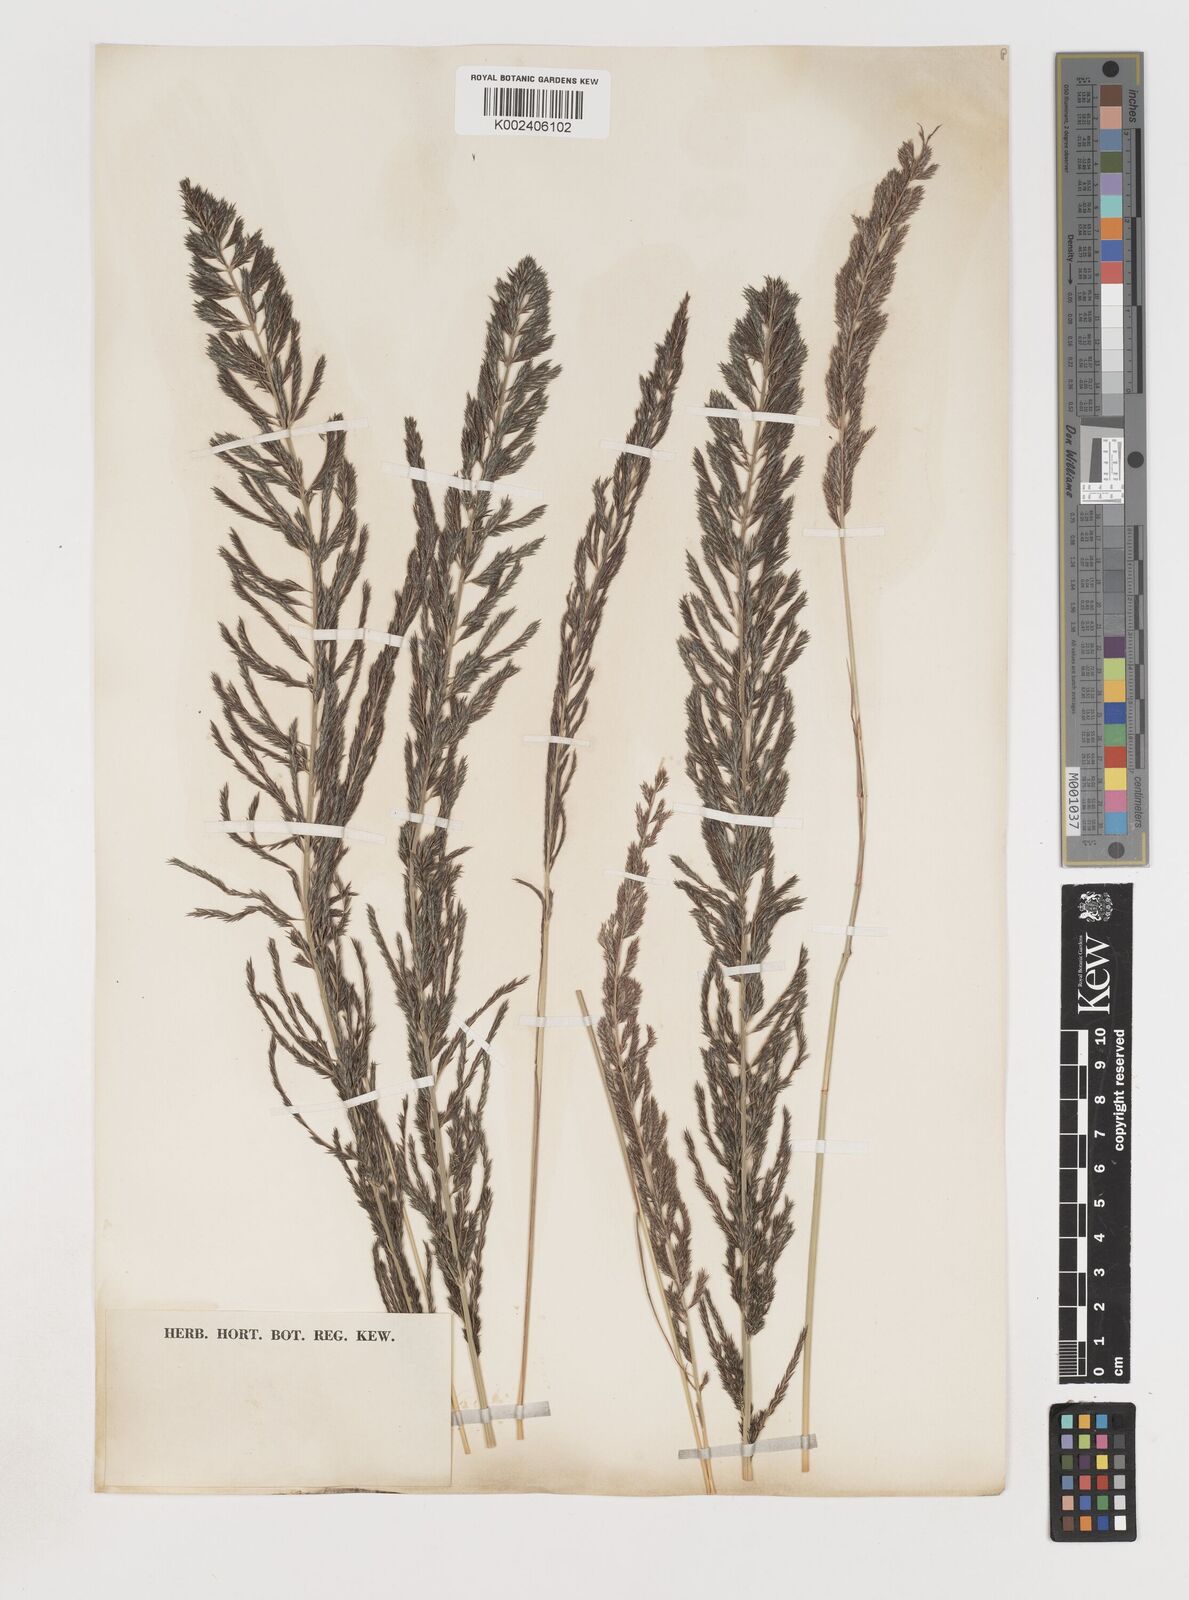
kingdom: Plantae
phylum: Tracheophyta
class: Liliopsida
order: Poales
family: Poaceae
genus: Pogonarthria
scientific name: Pogonarthria squarrosa
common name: Grass
